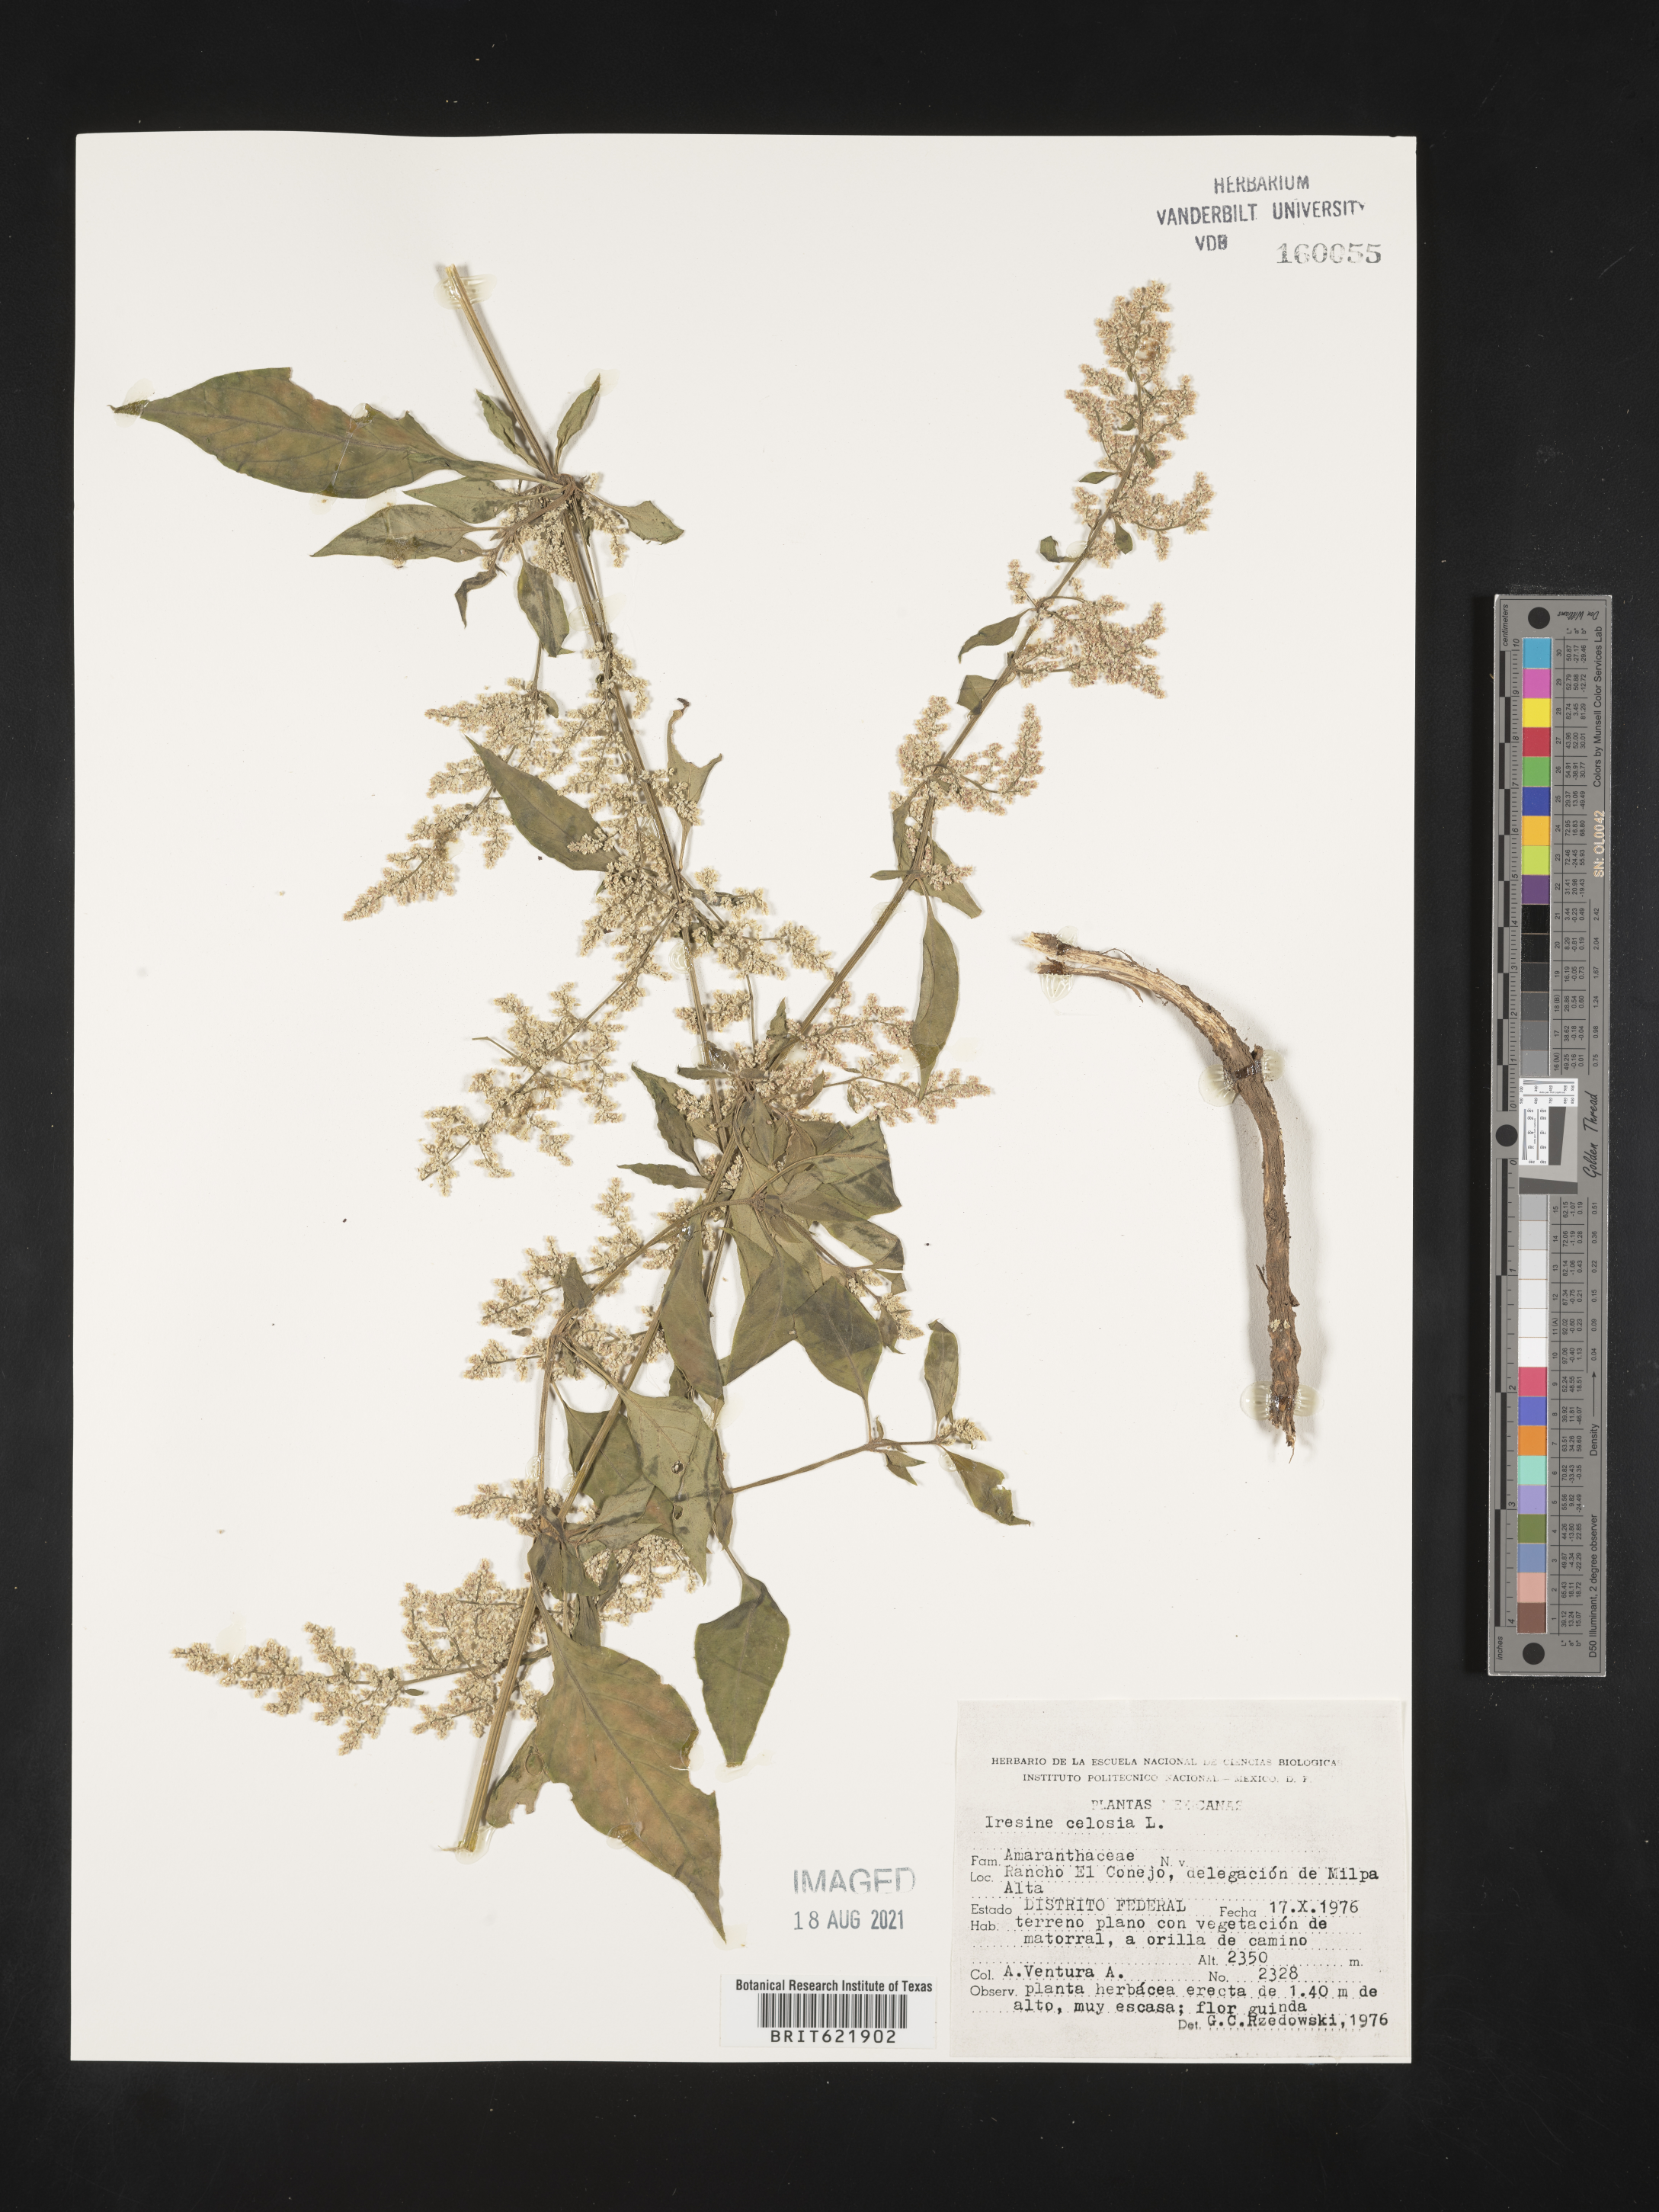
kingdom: Plantae
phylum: Tracheophyta
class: Magnoliopsida
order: Caryophyllales
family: Amaranthaceae
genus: Iresine
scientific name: Iresine
